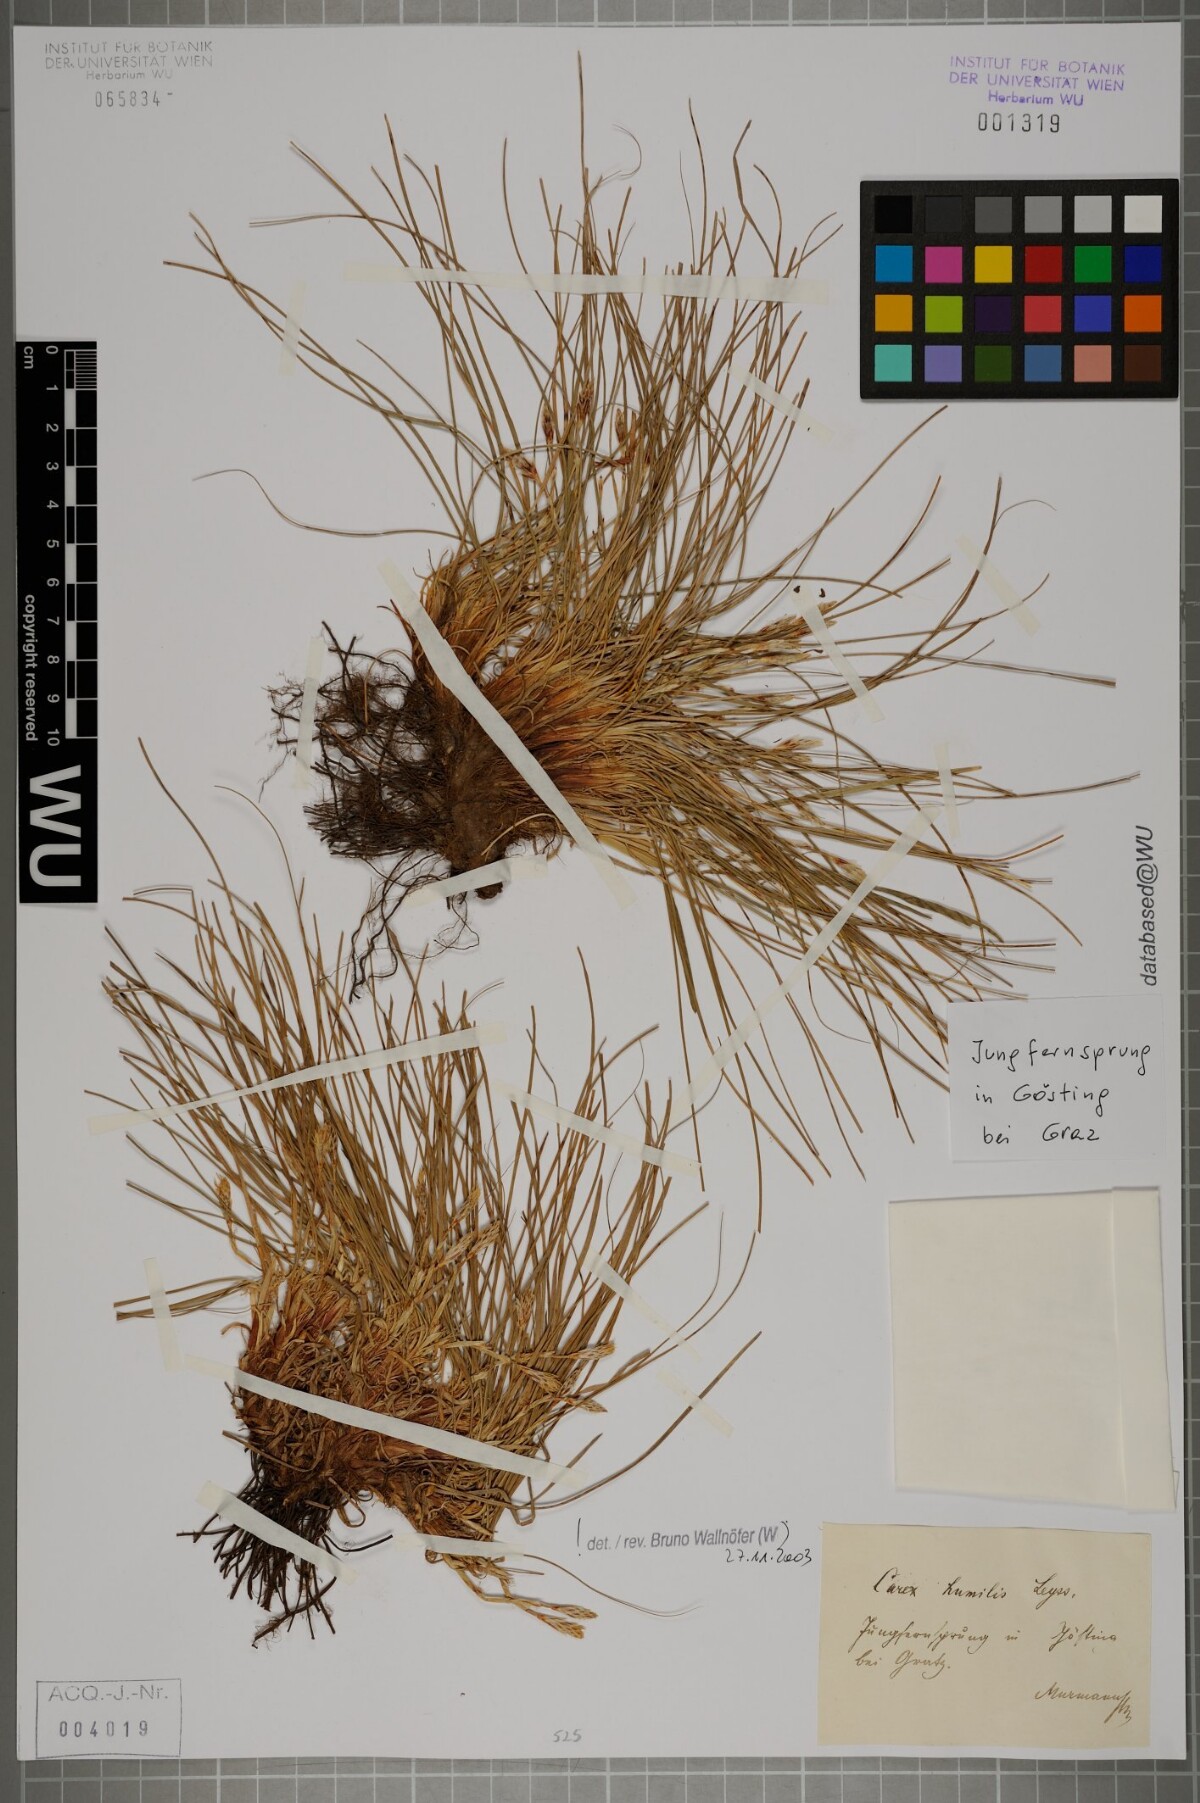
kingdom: Plantae
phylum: Tracheophyta
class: Liliopsida
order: Poales
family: Cyperaceae
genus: Carex
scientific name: Carex humilis
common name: Dwarf sedge
